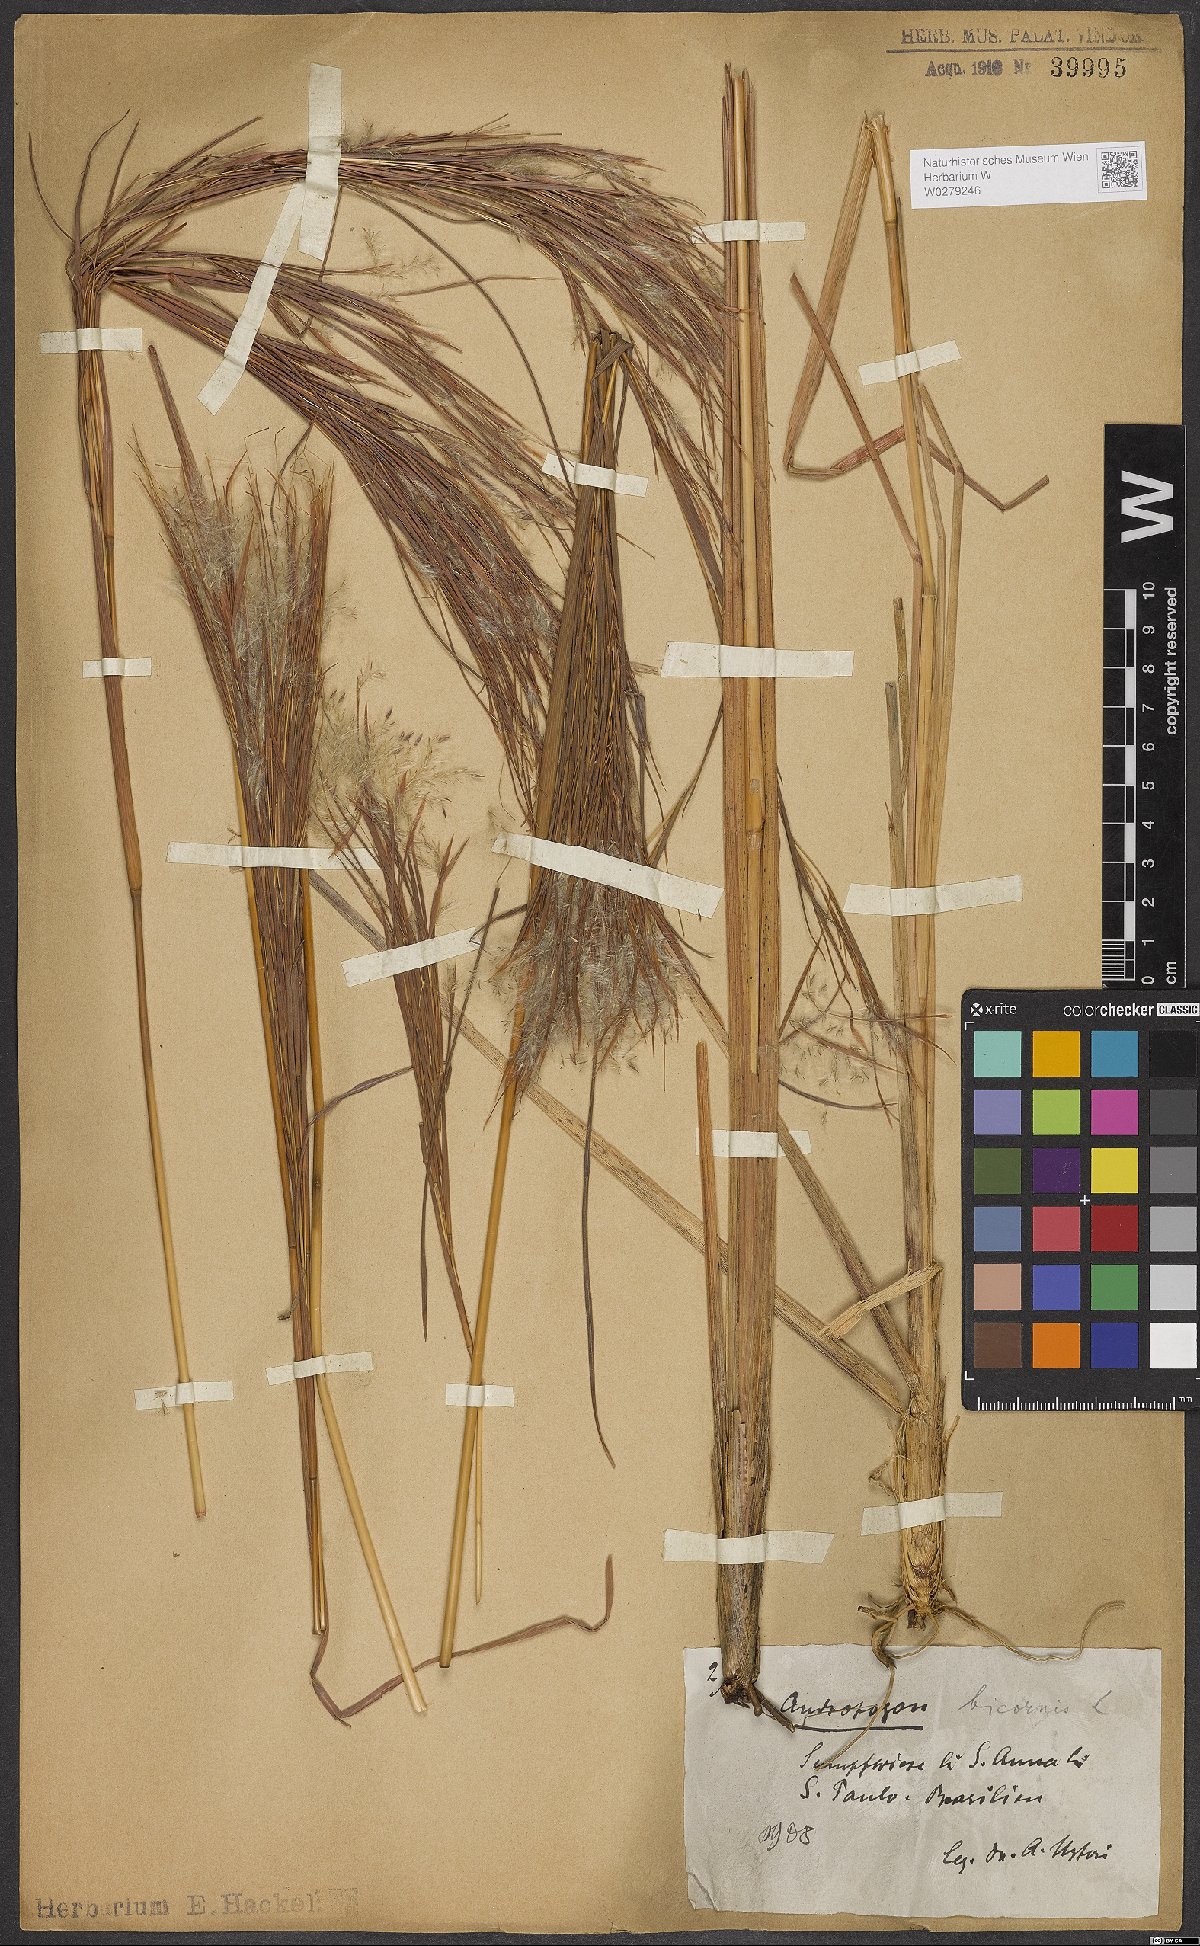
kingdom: Plantae
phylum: Tracheophyta
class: Liliopsida
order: Poales
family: Poaceae
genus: Andropogon
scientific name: Andropogon bicornis
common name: West indian foxtail grass
